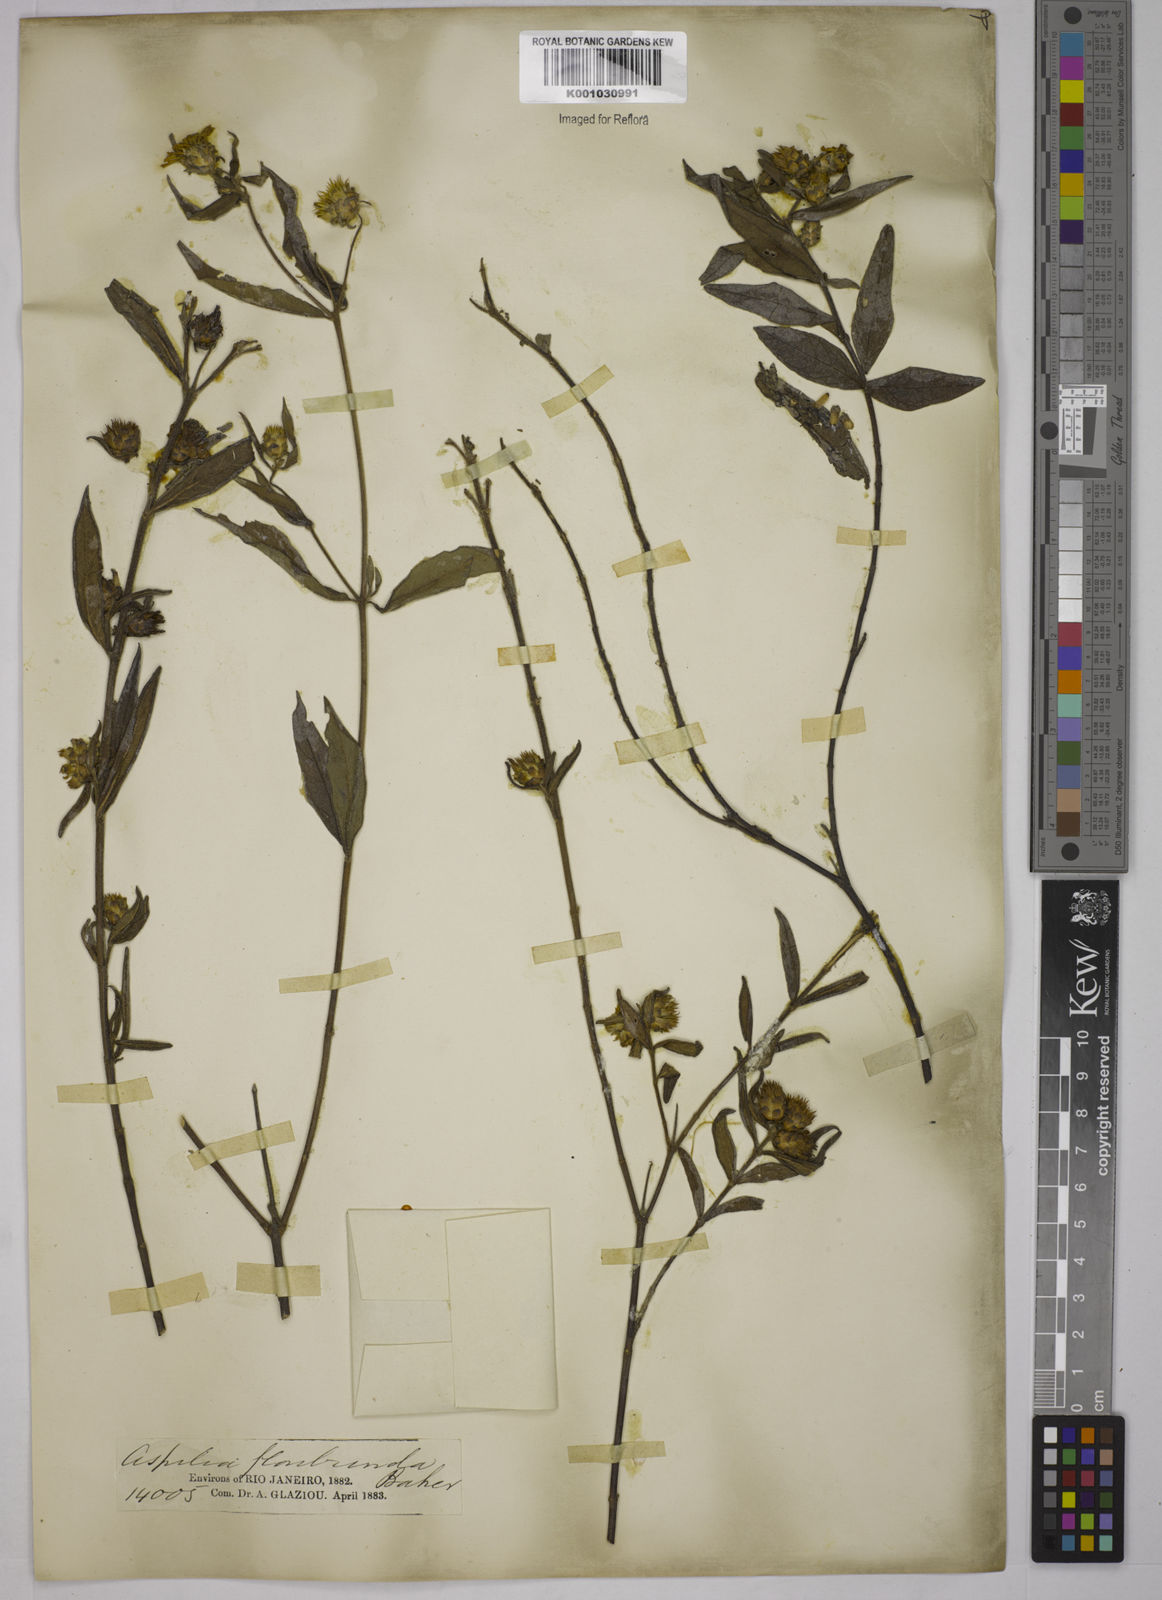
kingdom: Plantae
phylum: Tracheophyta
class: Magnoliopsida
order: Asterales
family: Asteraceae
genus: Wedelia
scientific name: Wedelia floribunda
